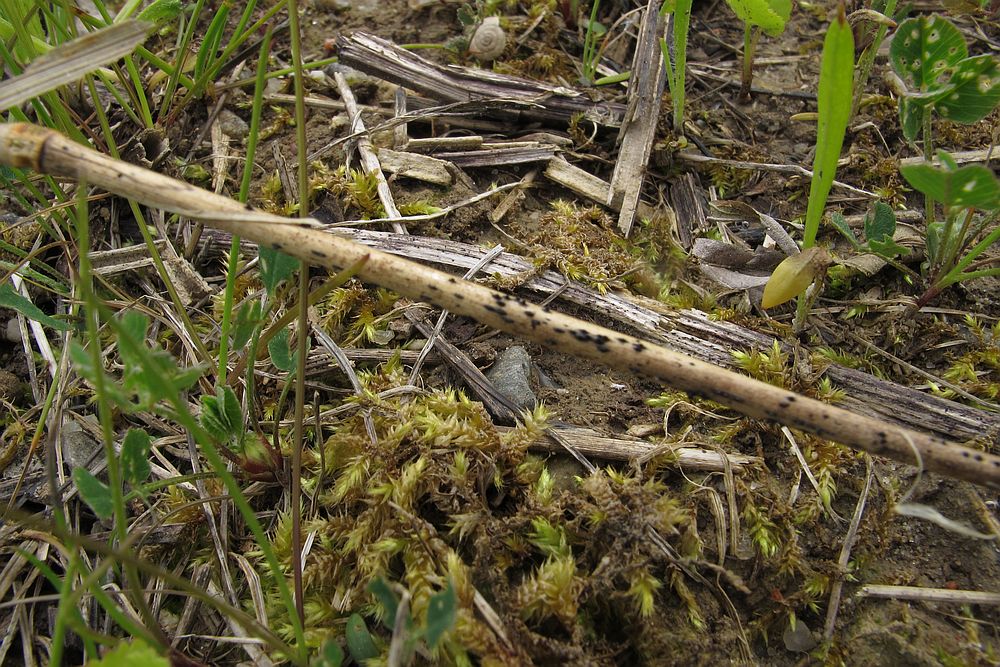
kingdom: Fungi
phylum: Ascomycota
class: Dothideomycetes
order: Pleosporales
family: Lophiostomataceae
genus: Lophiostoma
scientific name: Lophiostoma semiliberum
